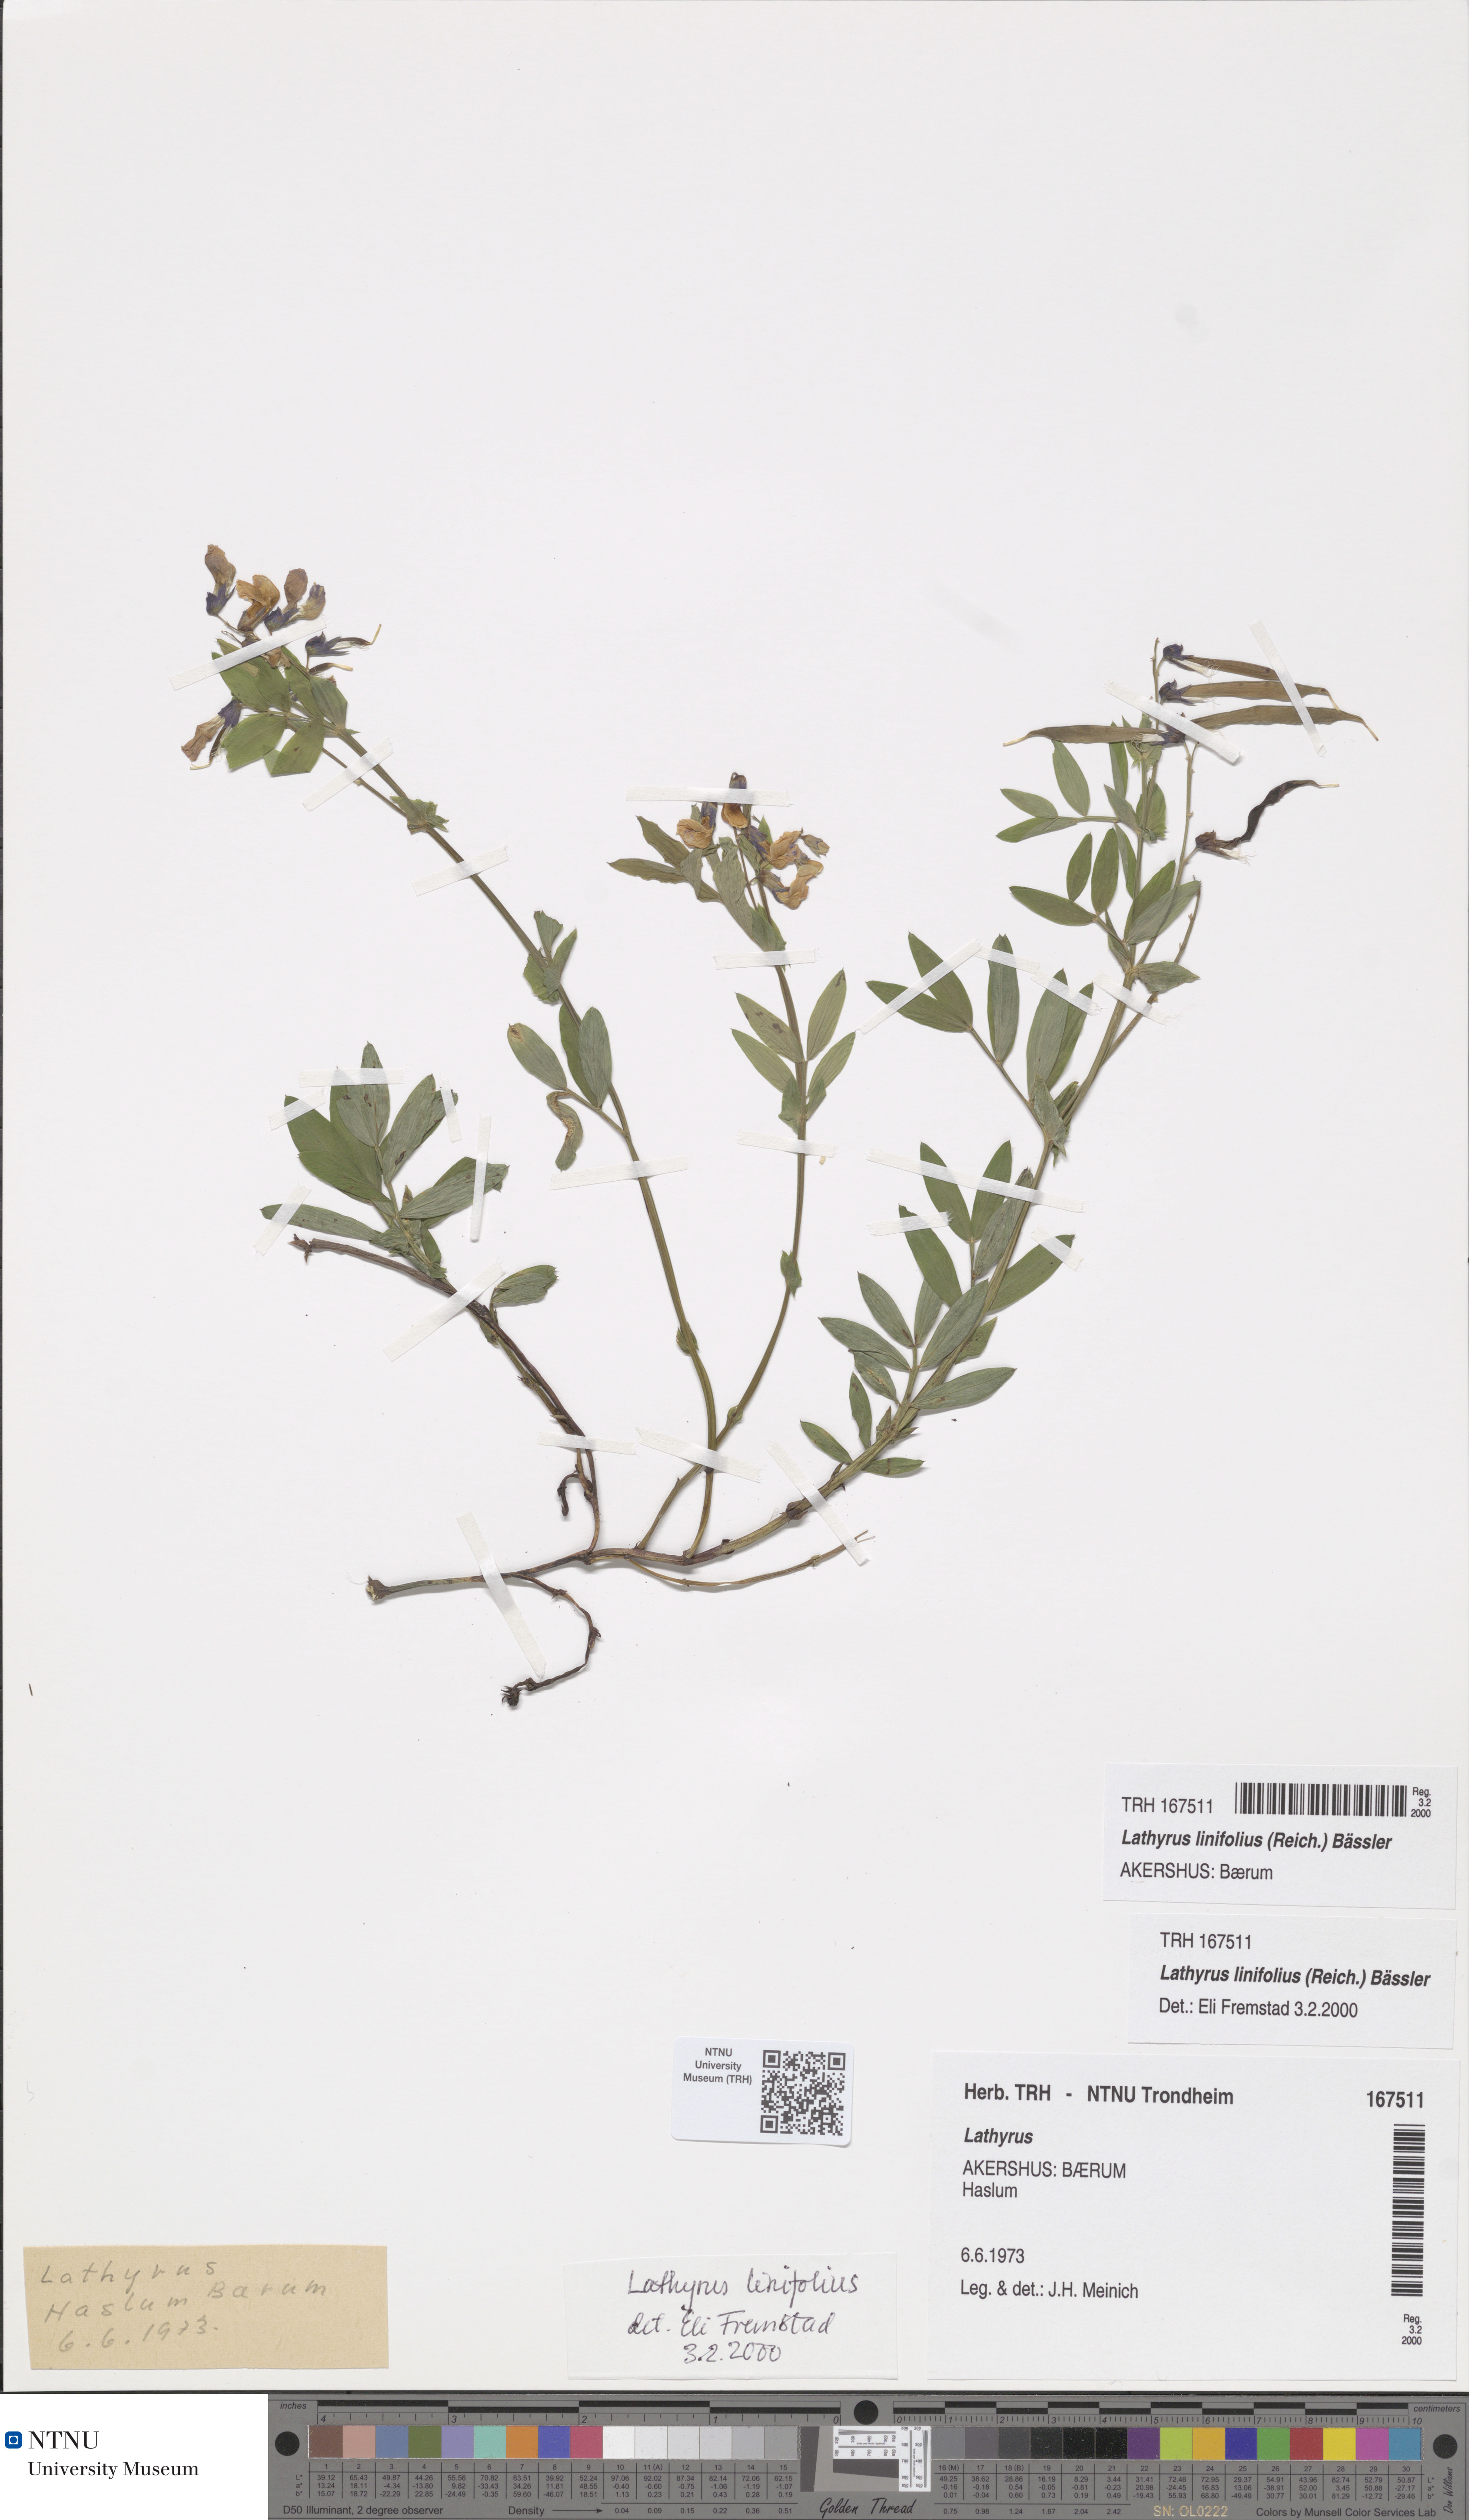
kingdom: Plantae
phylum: Tracheophyta
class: Magnoliopsida
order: Fabales
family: Fabaceae
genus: Lathyrus
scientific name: Lathyrus linifolius
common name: Bitter-vetch
